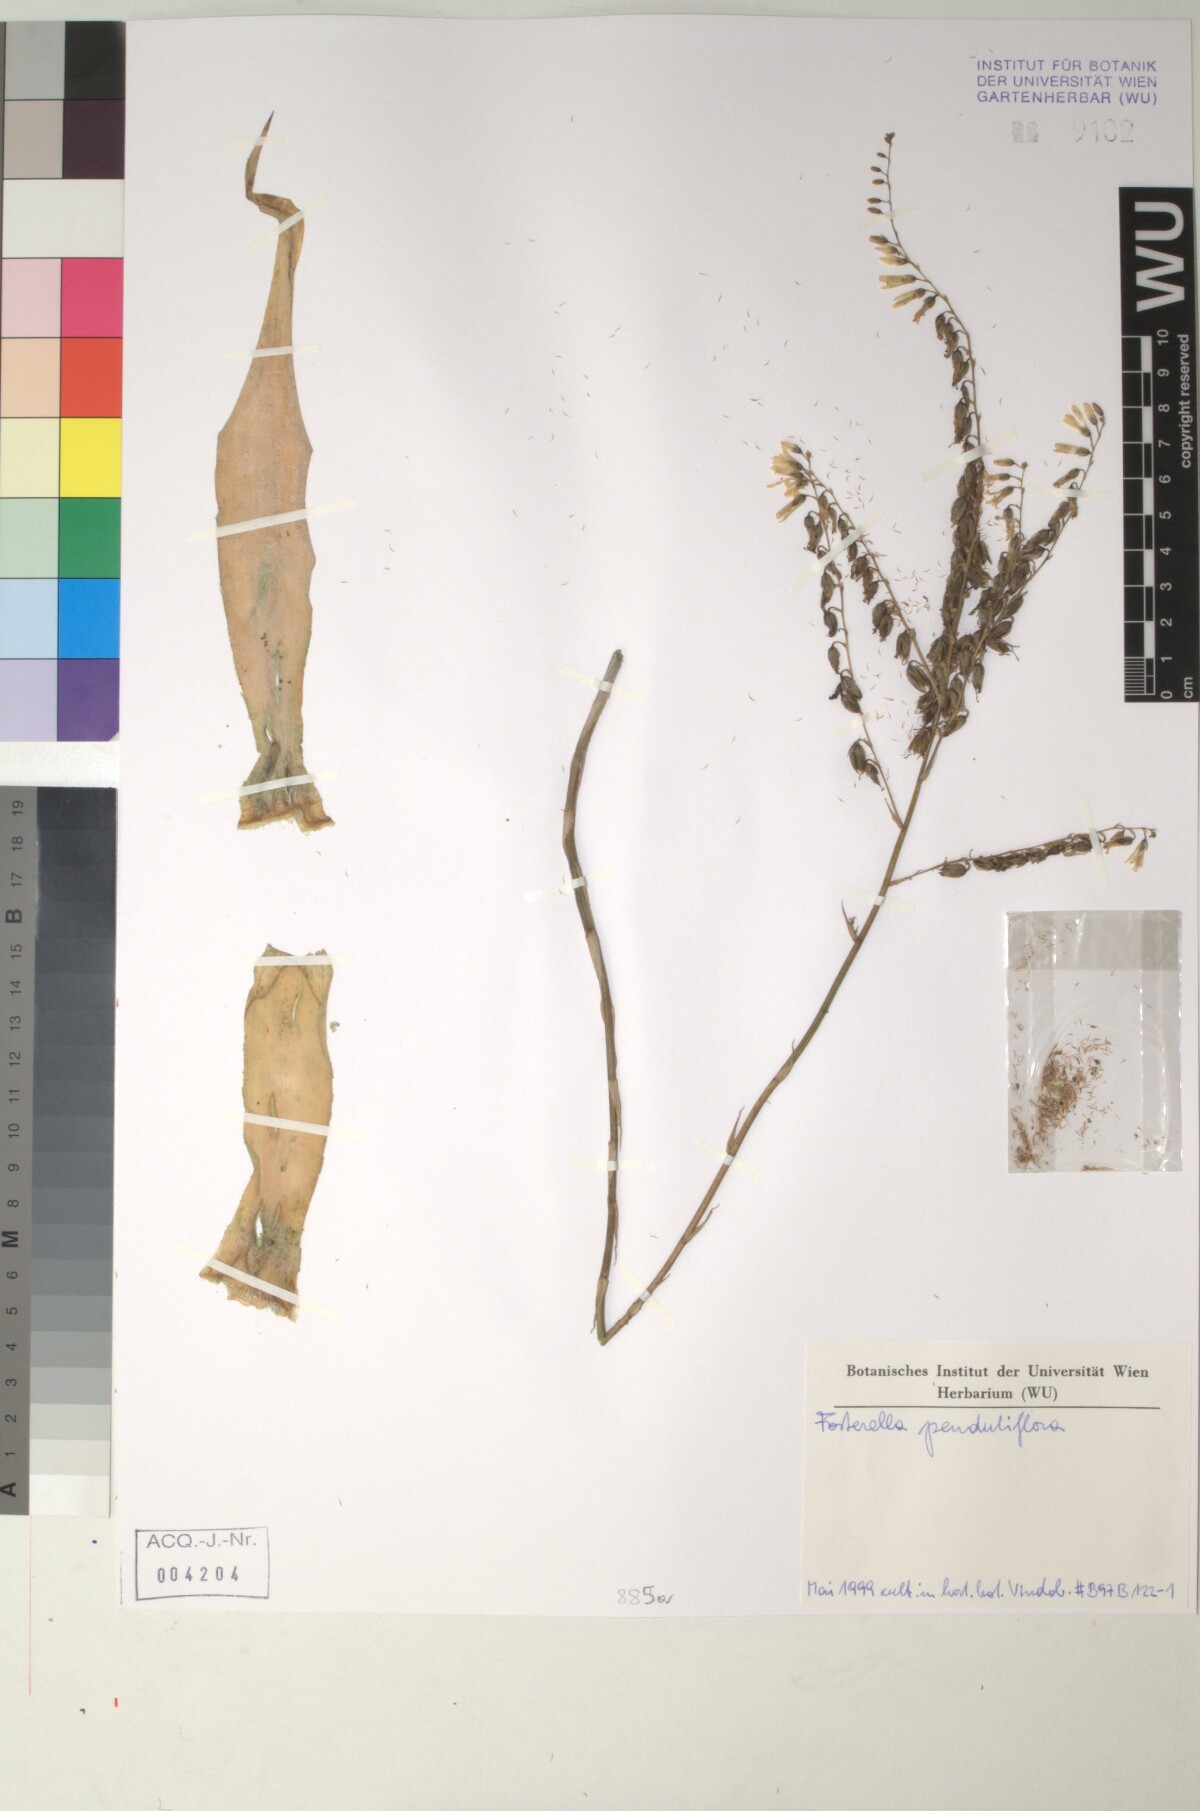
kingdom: Plantae
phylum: Tracheophyta
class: Liliopsida
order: Poales
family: Bromeliaceae
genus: Fosterella
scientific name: Fosterella penduliflora
